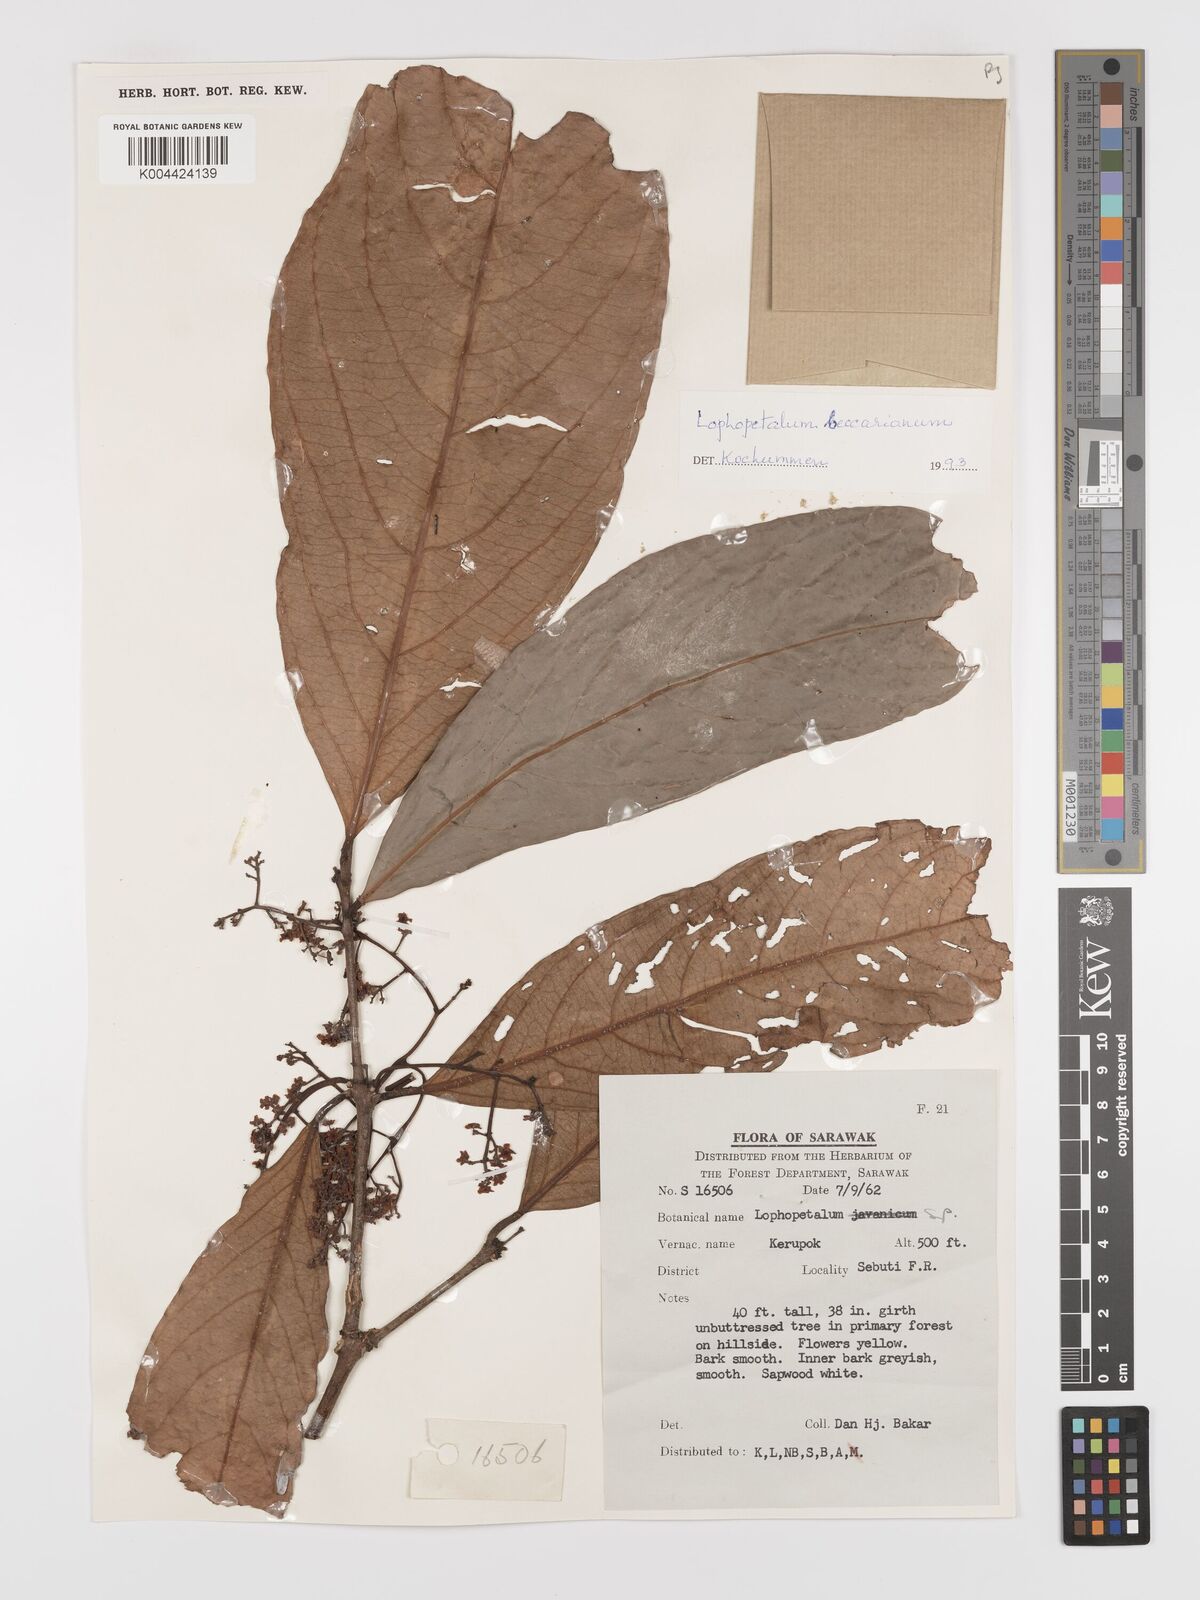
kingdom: Plantae
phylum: Tracheophyta
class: Magnoliopsida
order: Celastrales
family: Celastraceae
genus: Lophopetalum
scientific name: Lophopetalum beccarianum
